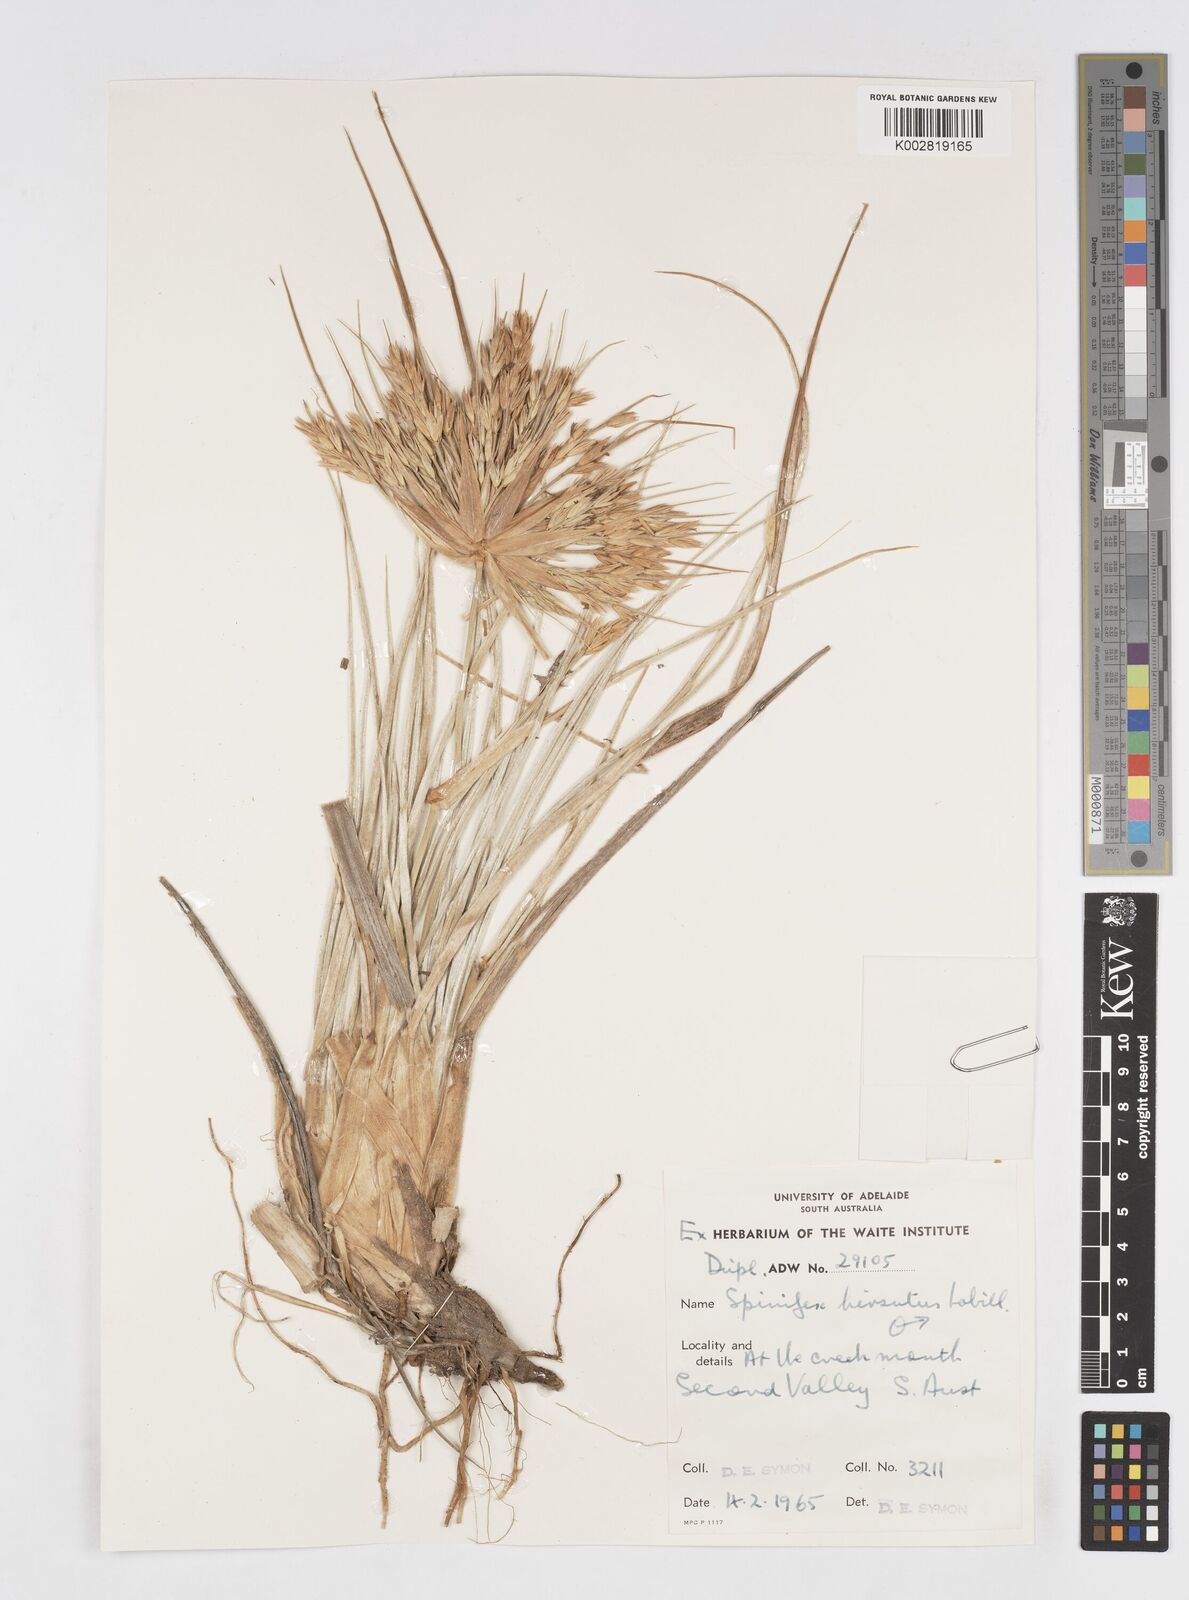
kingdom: Plantae
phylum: Tracheophyta
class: Liliopsida
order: Poales
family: Poaceae
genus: Spinifex
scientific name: Spinifex hirsutus
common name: Hairy spinifex
